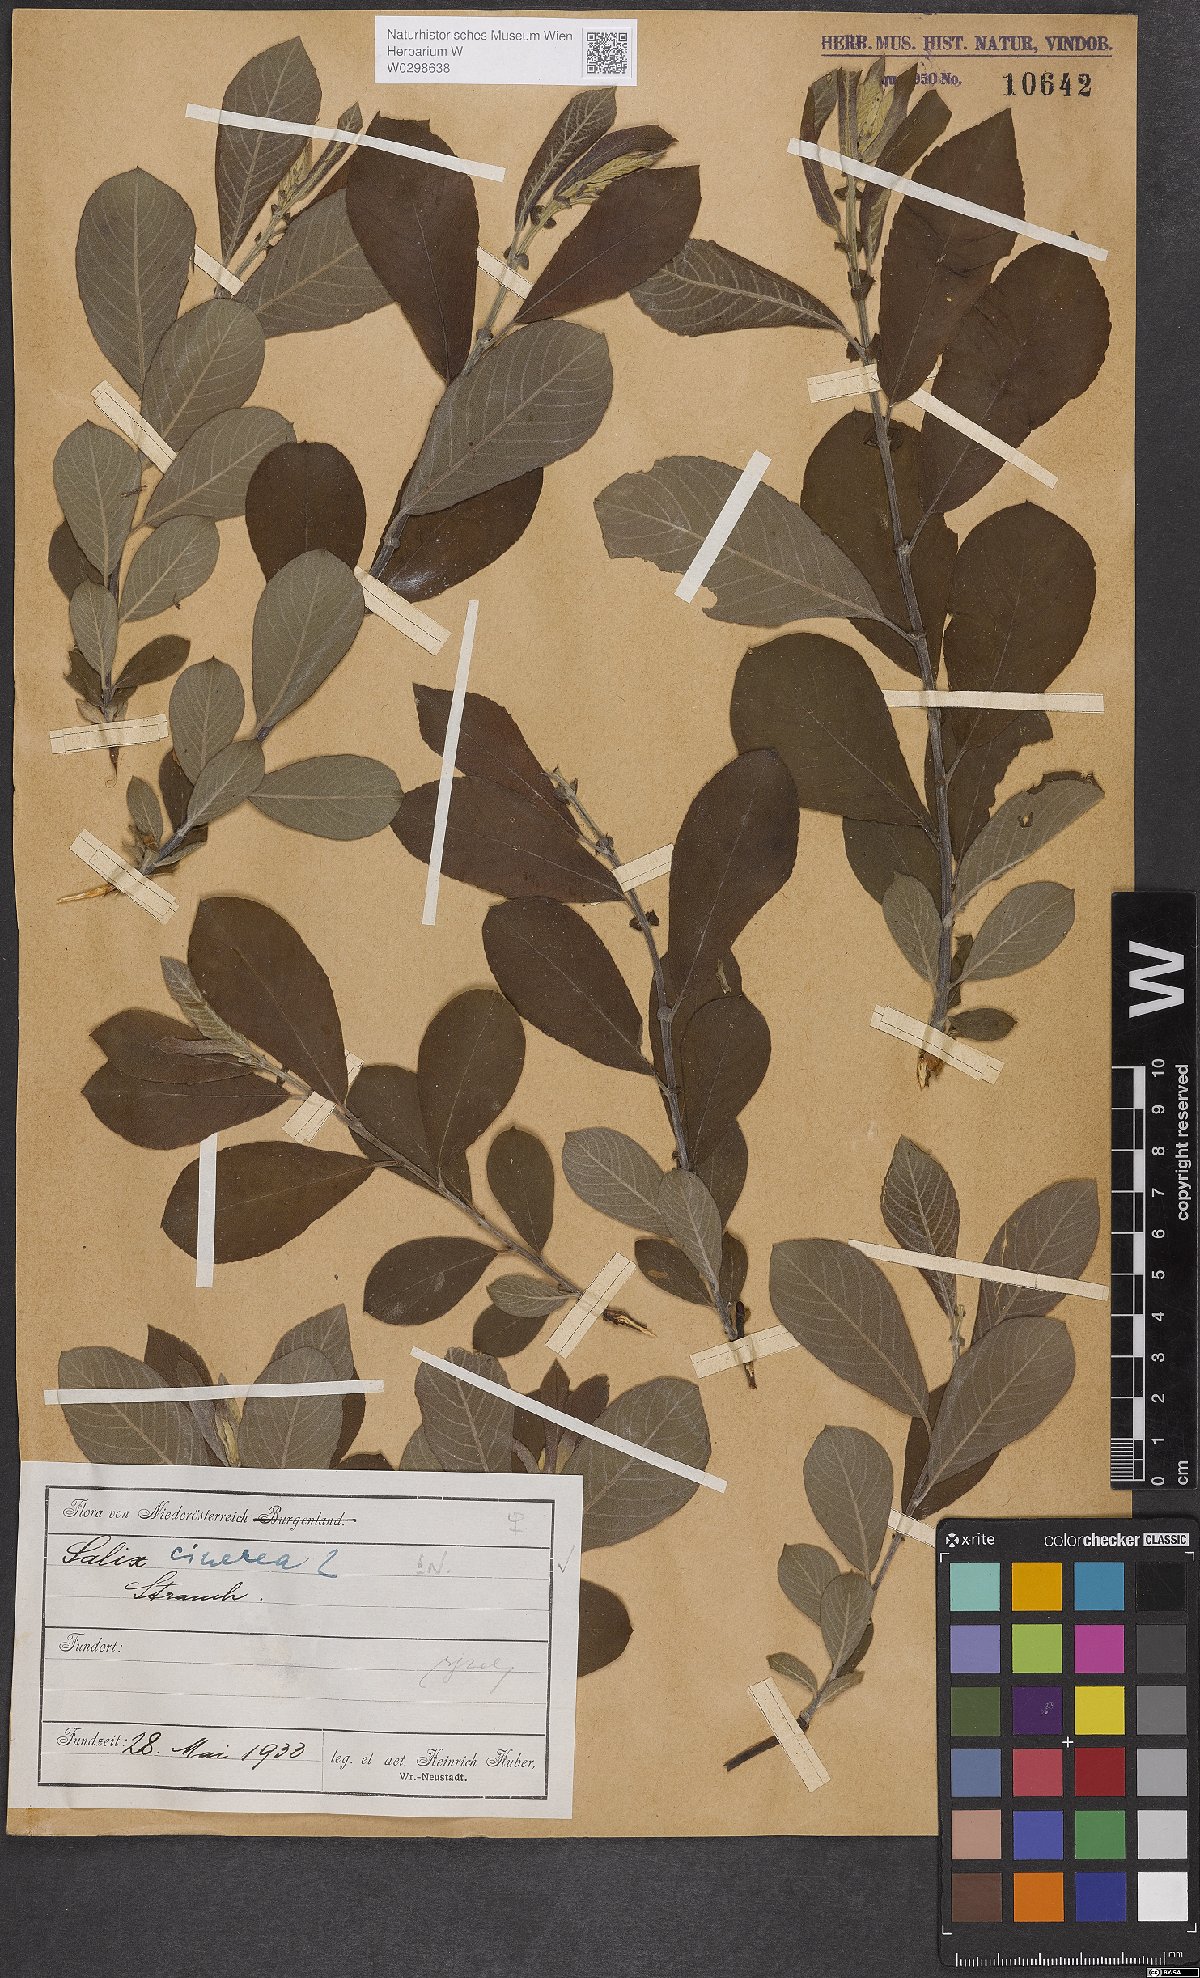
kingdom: Plantae
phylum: Tracheophyta
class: Magnoliopsida
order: Malpighiales
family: Salicaceae
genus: Salix
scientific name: Salix cinerea
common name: Common sallow
